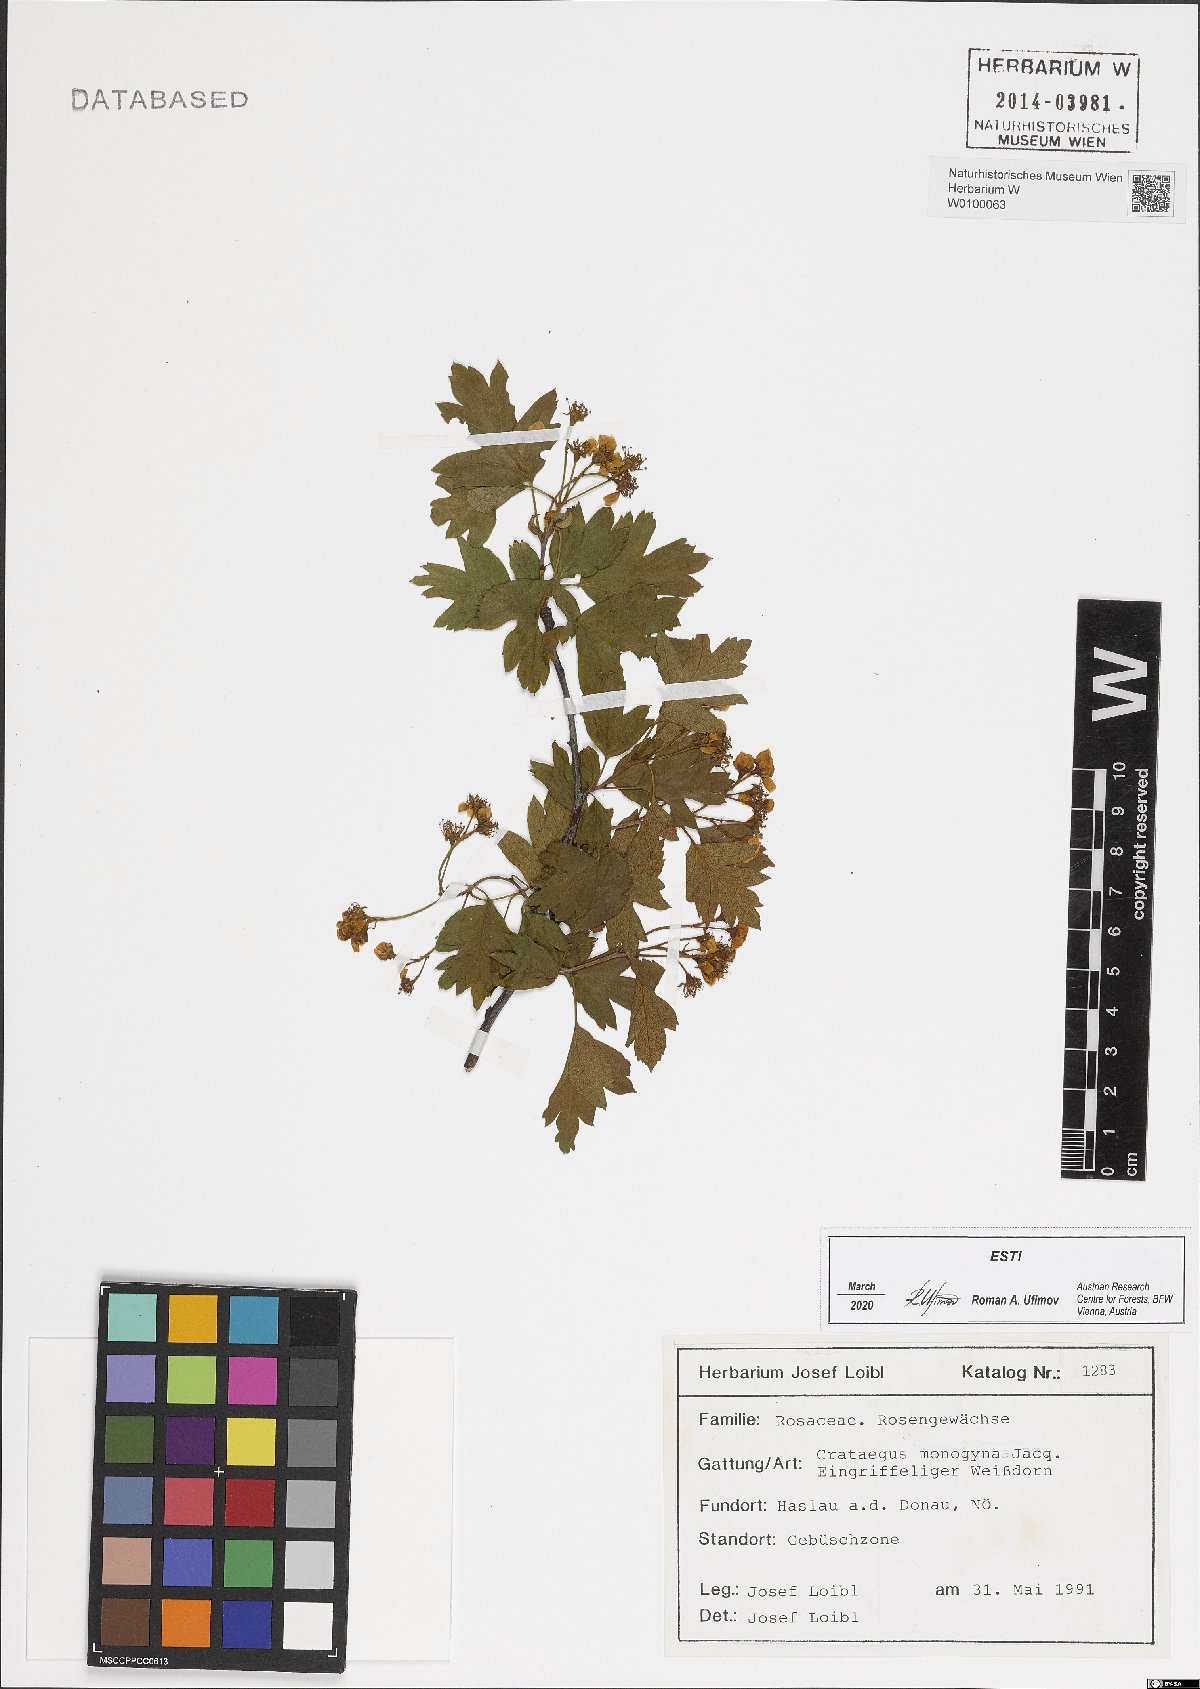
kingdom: Plantae
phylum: Tracheophyta
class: Magnoliopsida
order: Rosales
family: Rosaceae
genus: Crataegus
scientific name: Crataegus monogyna
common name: Hawthorn
